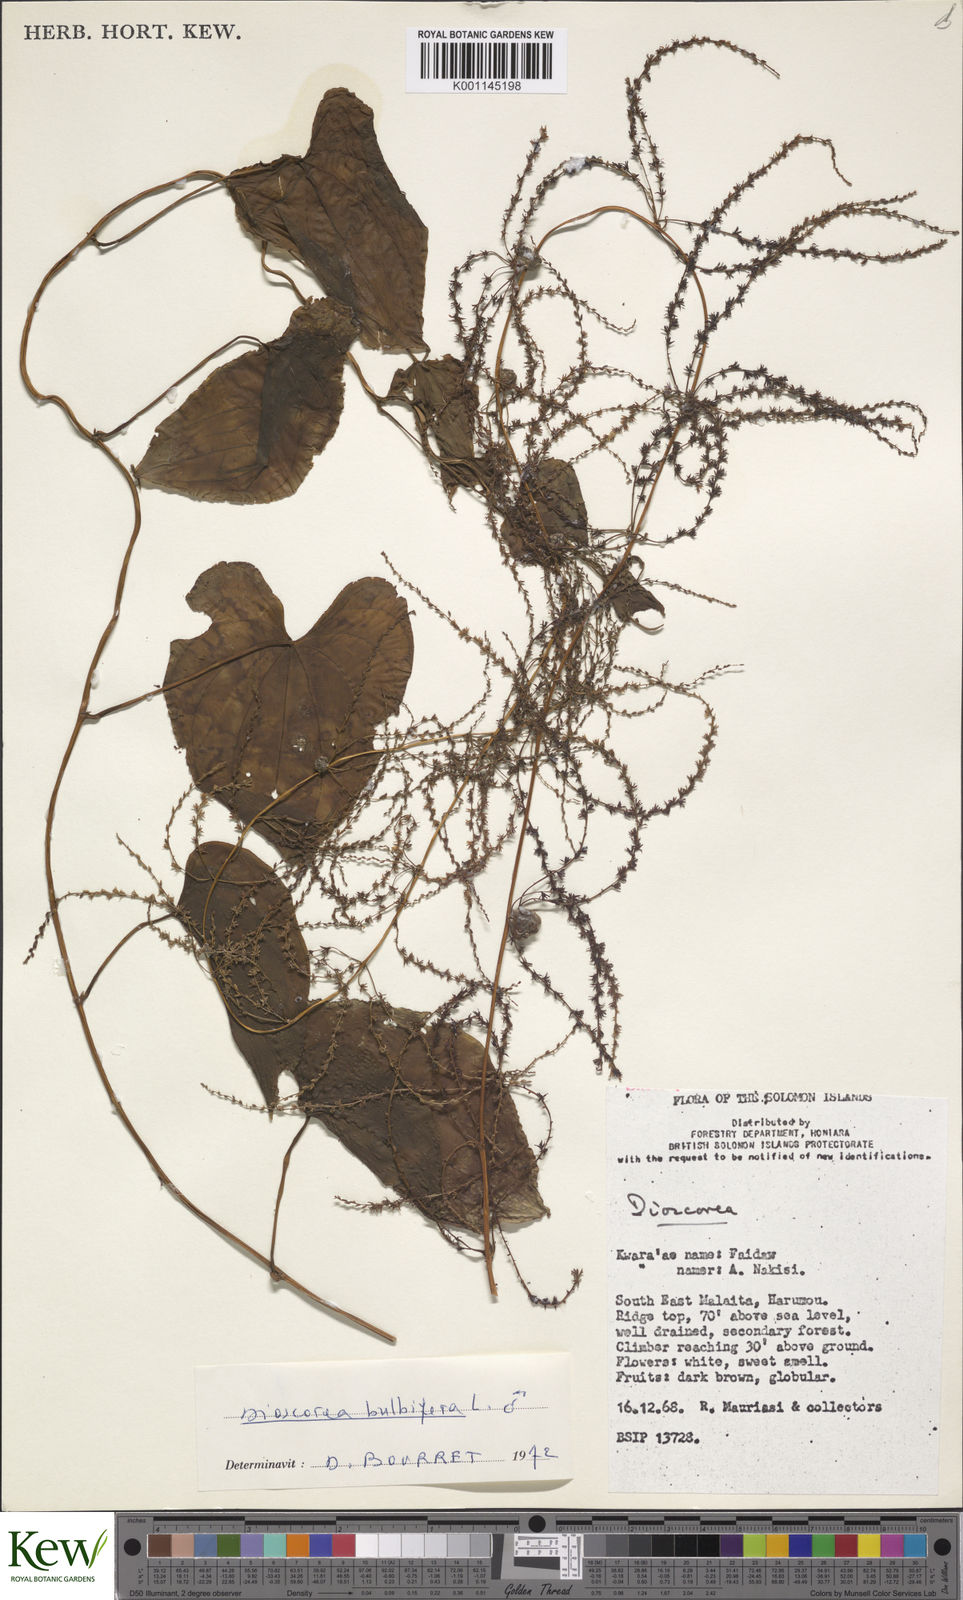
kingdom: Plantae
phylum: Tracheophyta
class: Liliopsida
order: Dioscoreales
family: Dioscoreaceae
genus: Dioscorea
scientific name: Dioscorea bulbifera
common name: Air yam
